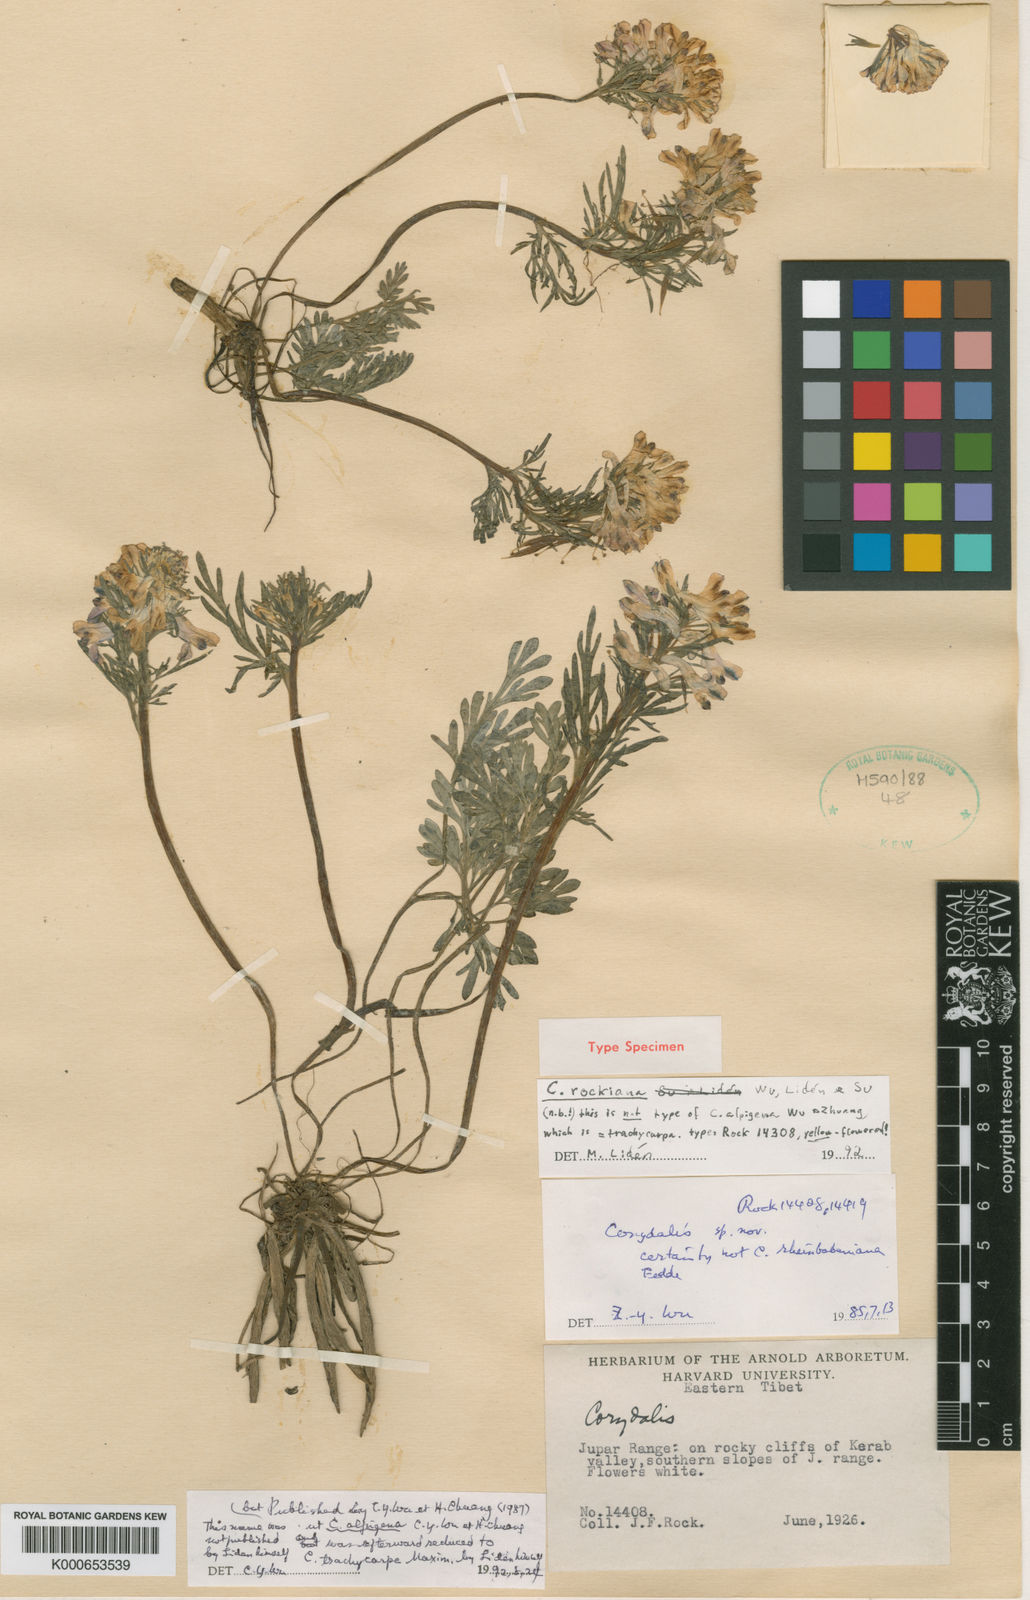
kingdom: Plantae
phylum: Tracheophyta
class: Magnoliopsida
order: Ranunculales
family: Papaveraceae
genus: Corydalis
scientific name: Corydalis
